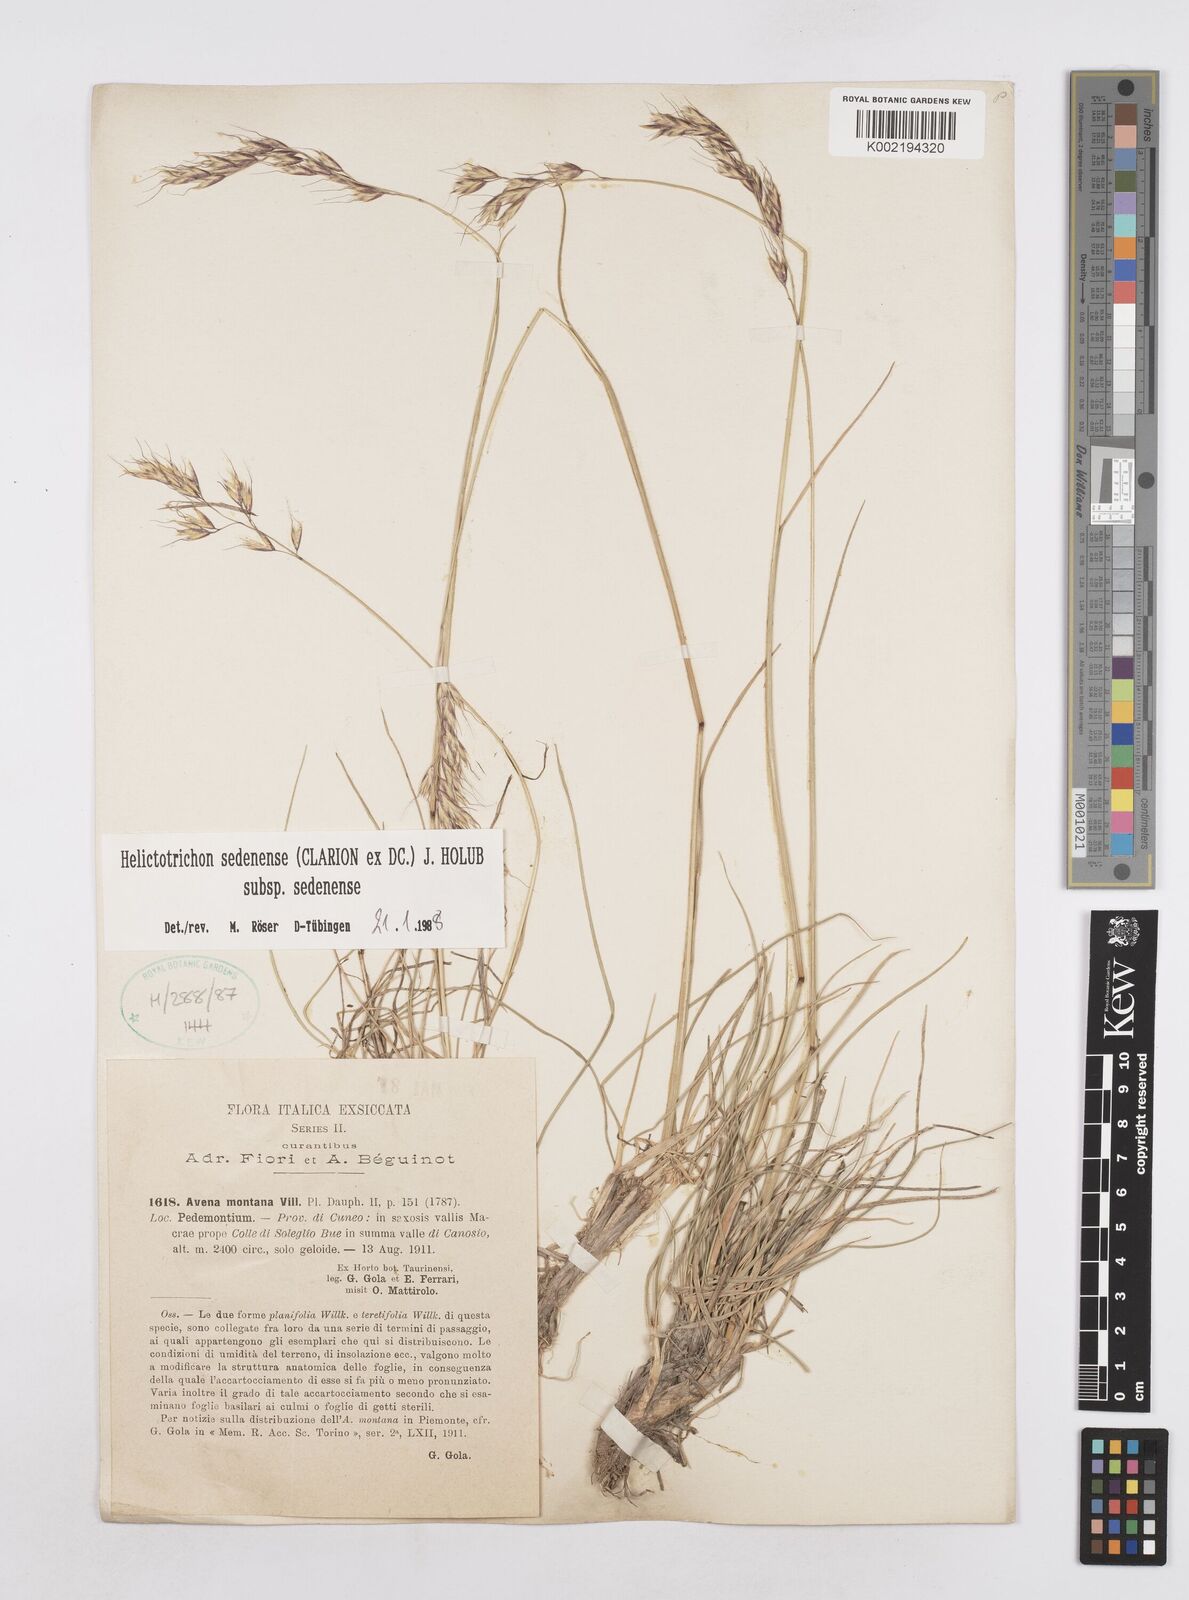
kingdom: Plantae
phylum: Tracheophyta
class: Liliopsida
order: Poales
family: Poaceae
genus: Helictotrichon
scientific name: Helictotrichon sedenense
